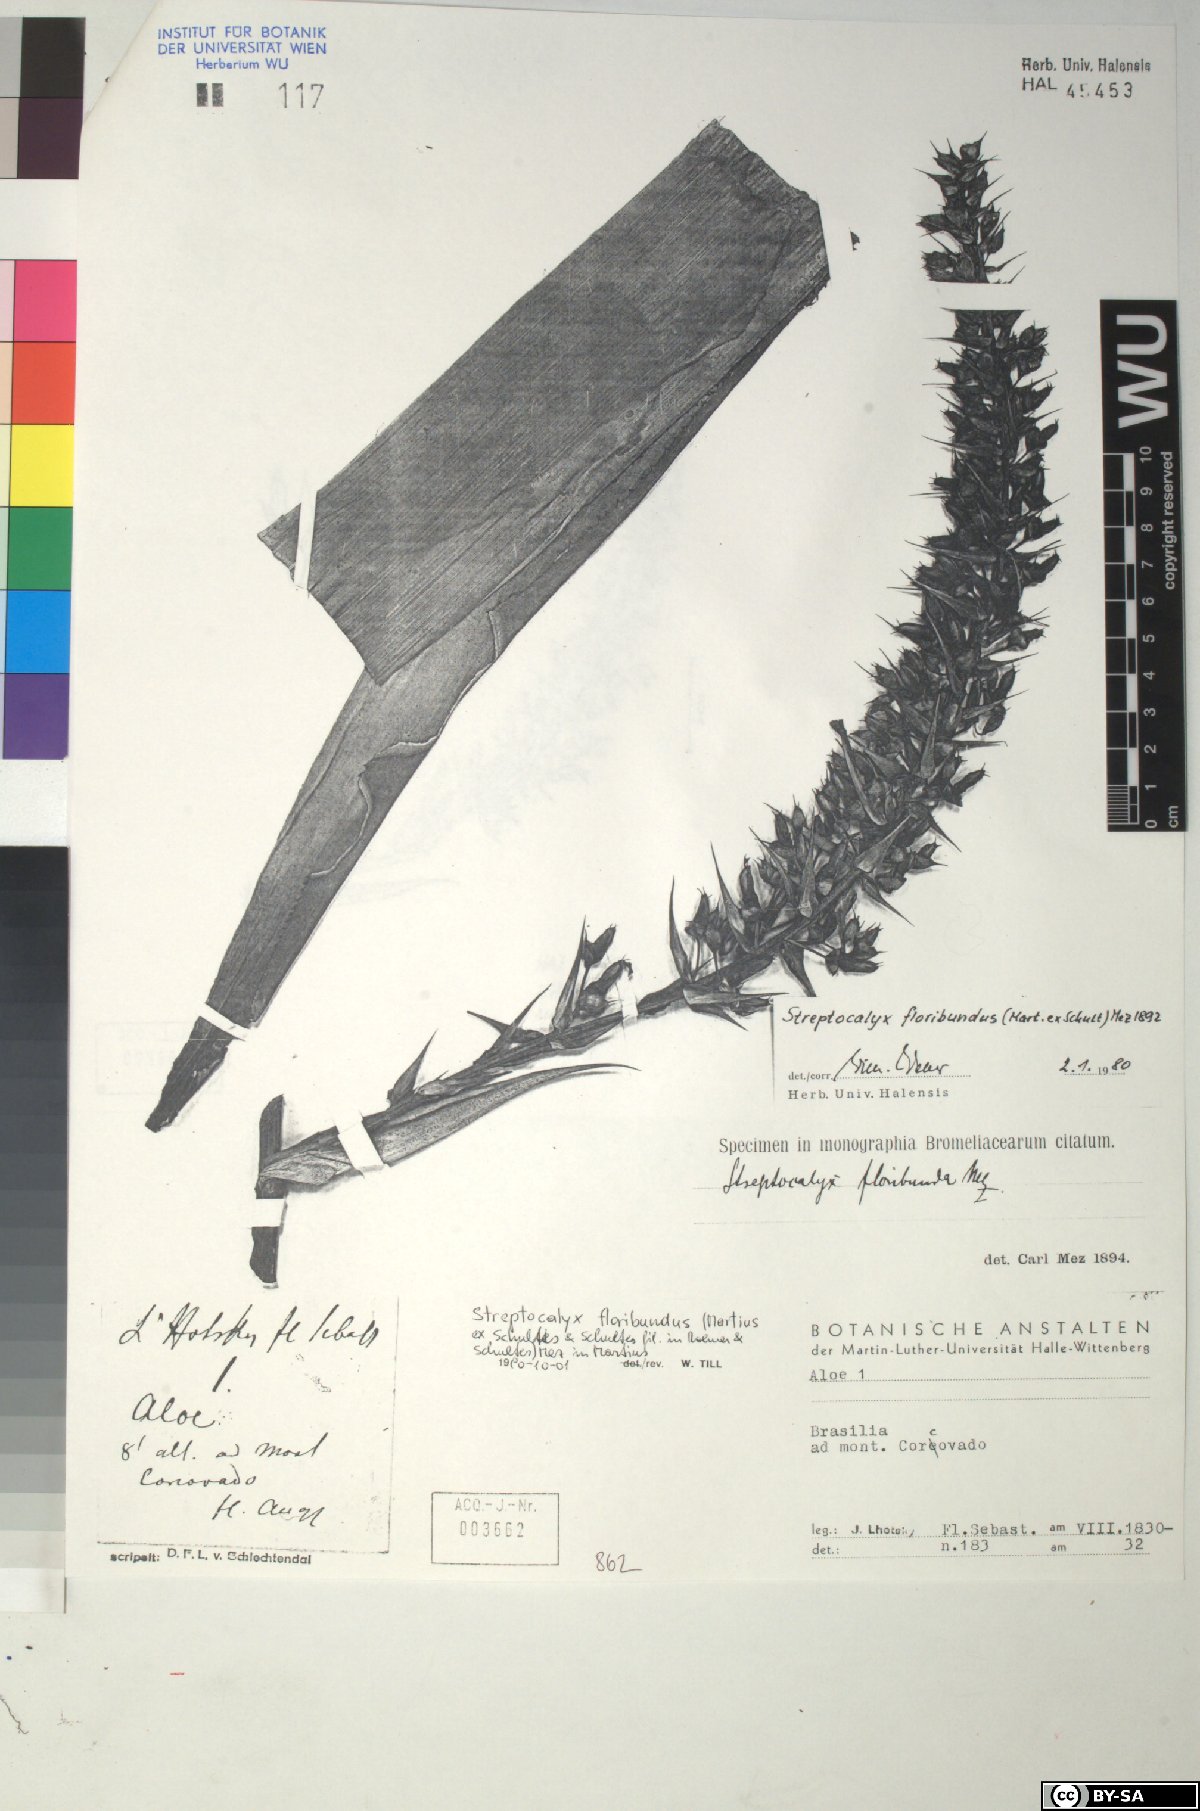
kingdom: Plantae
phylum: Tracheophyta
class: Liliopsida
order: Poales
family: Bromeliaceae
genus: Aechmea
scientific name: Aechmea
